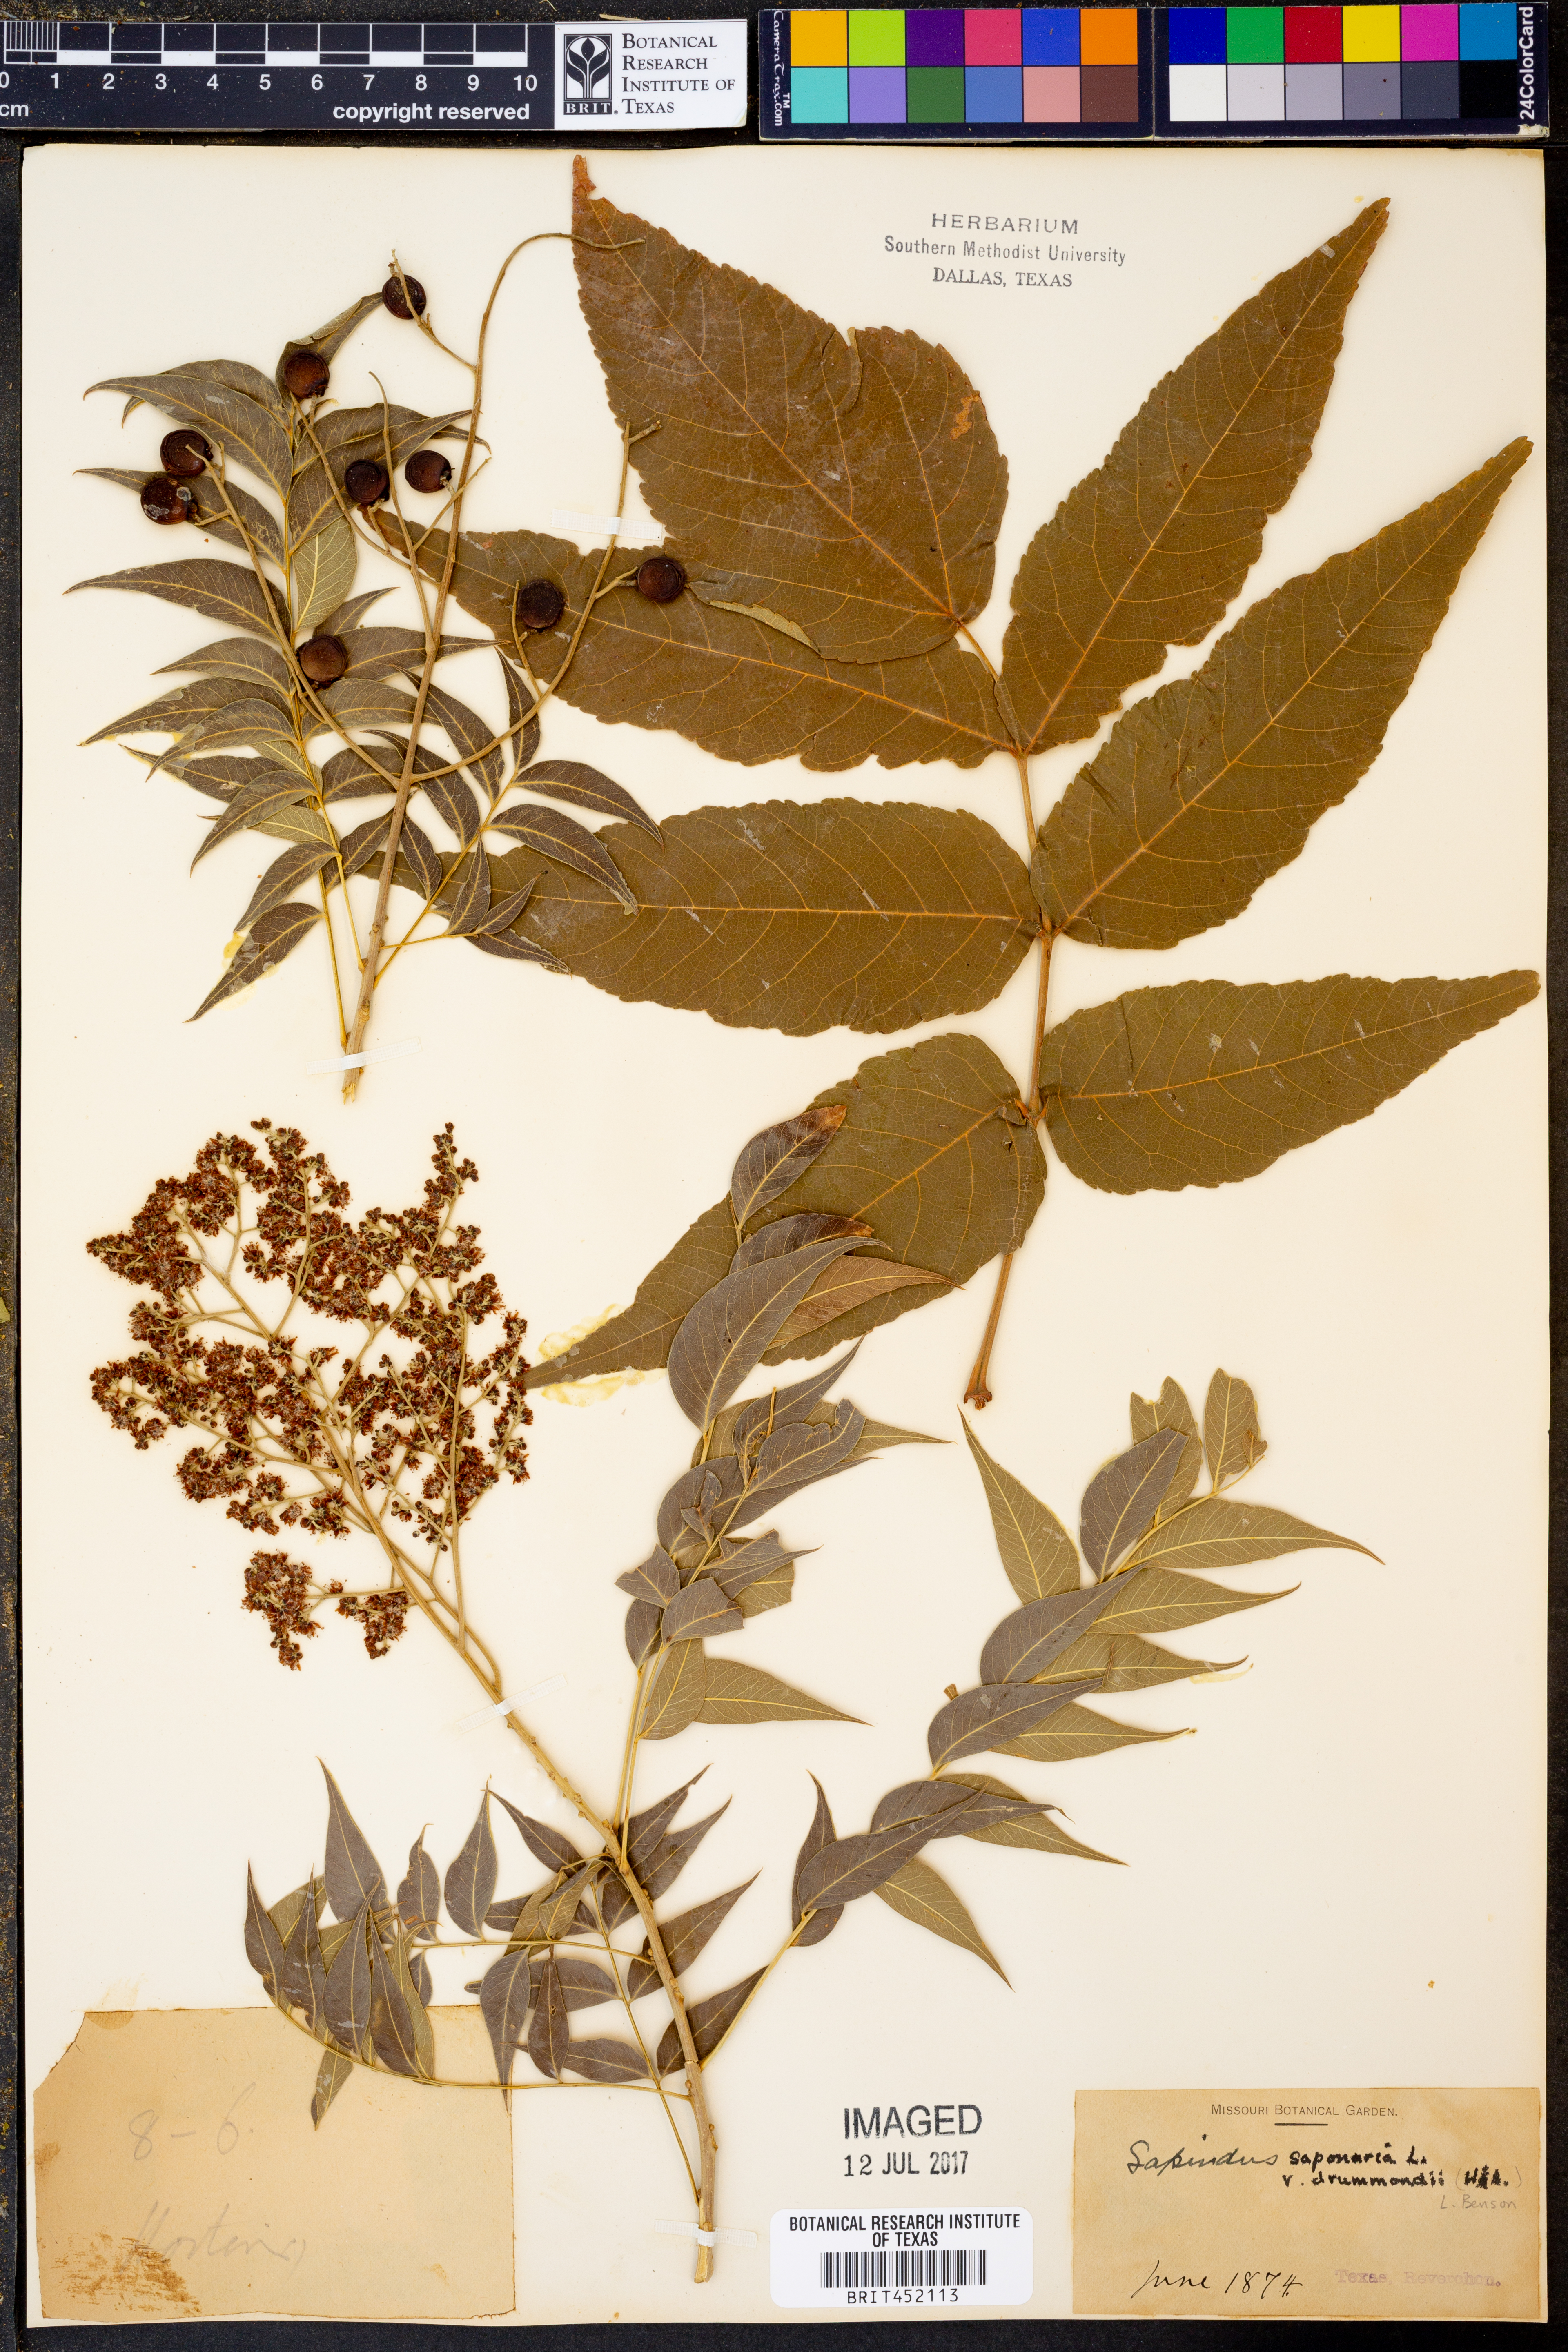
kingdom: Plantae
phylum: Tracheophyta
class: Magnoliopsida
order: Sapindales
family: Sapindaceae
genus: Sapindus
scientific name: Sapindus drummondii
